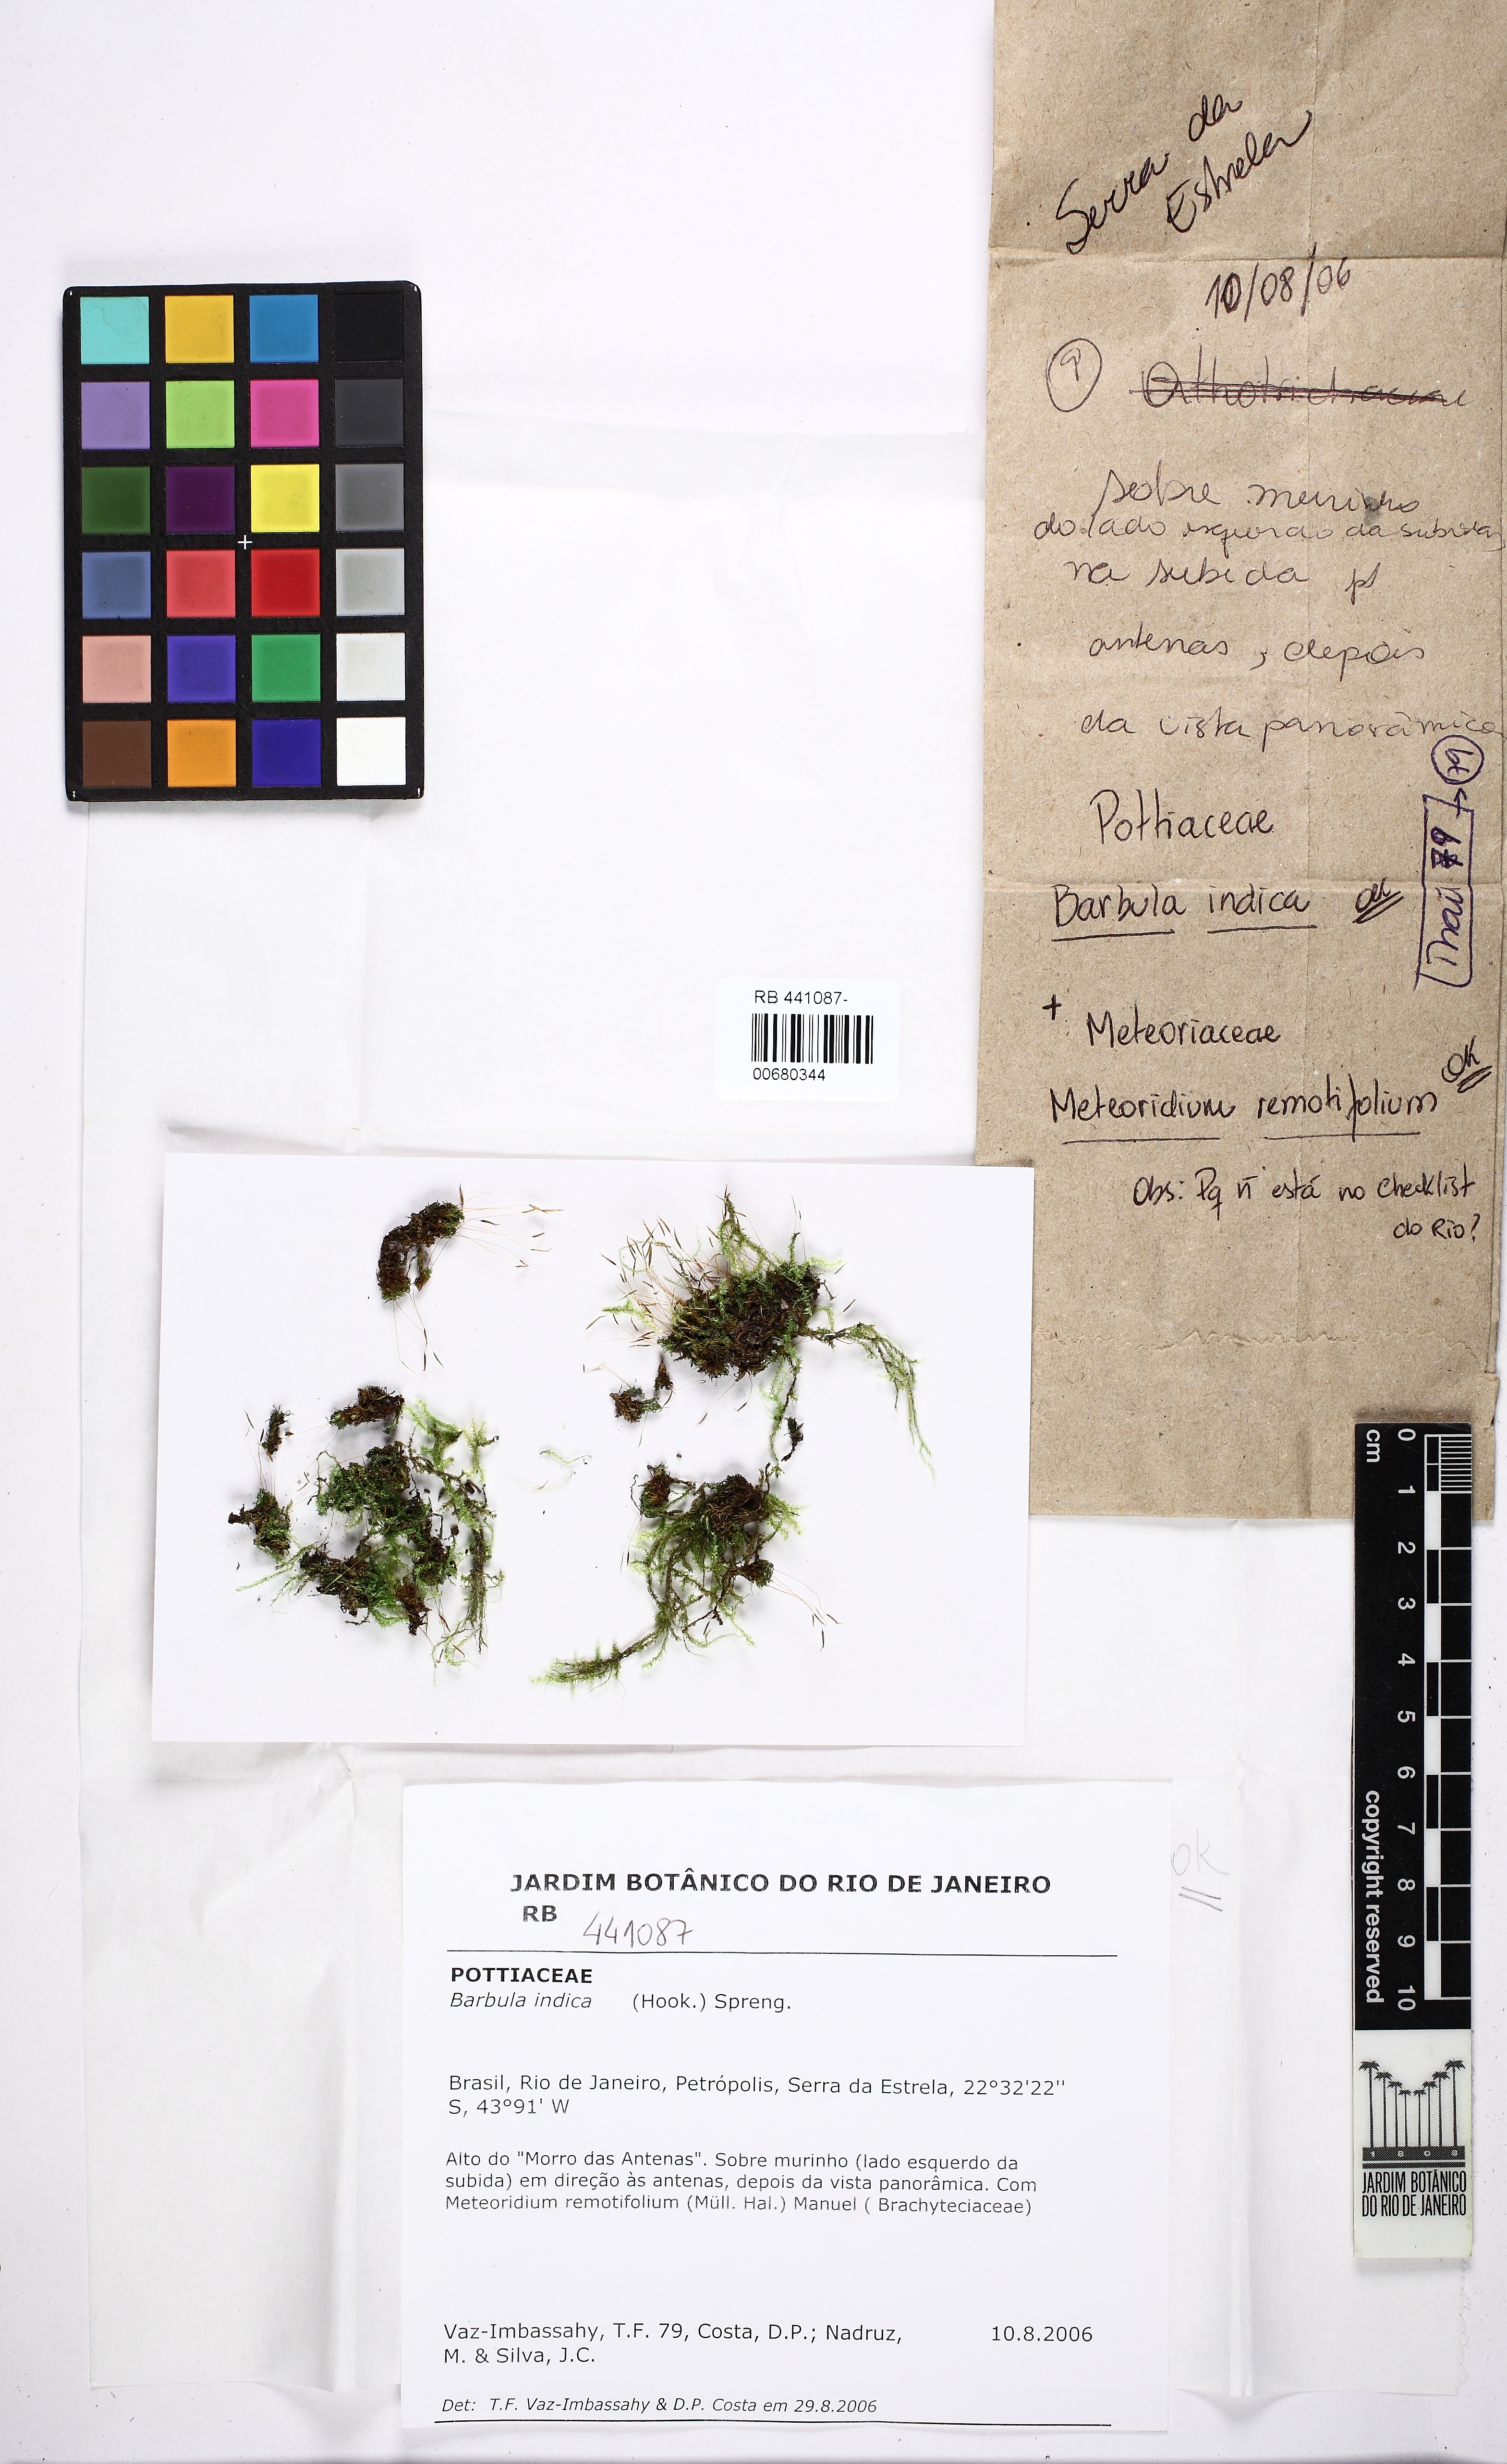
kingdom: Plantae
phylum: Bryophyta
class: Bryopsida
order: Grimmiales
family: Ptychomitriaceae
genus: Ptychomitrium
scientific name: Ptychomitrium indicum
